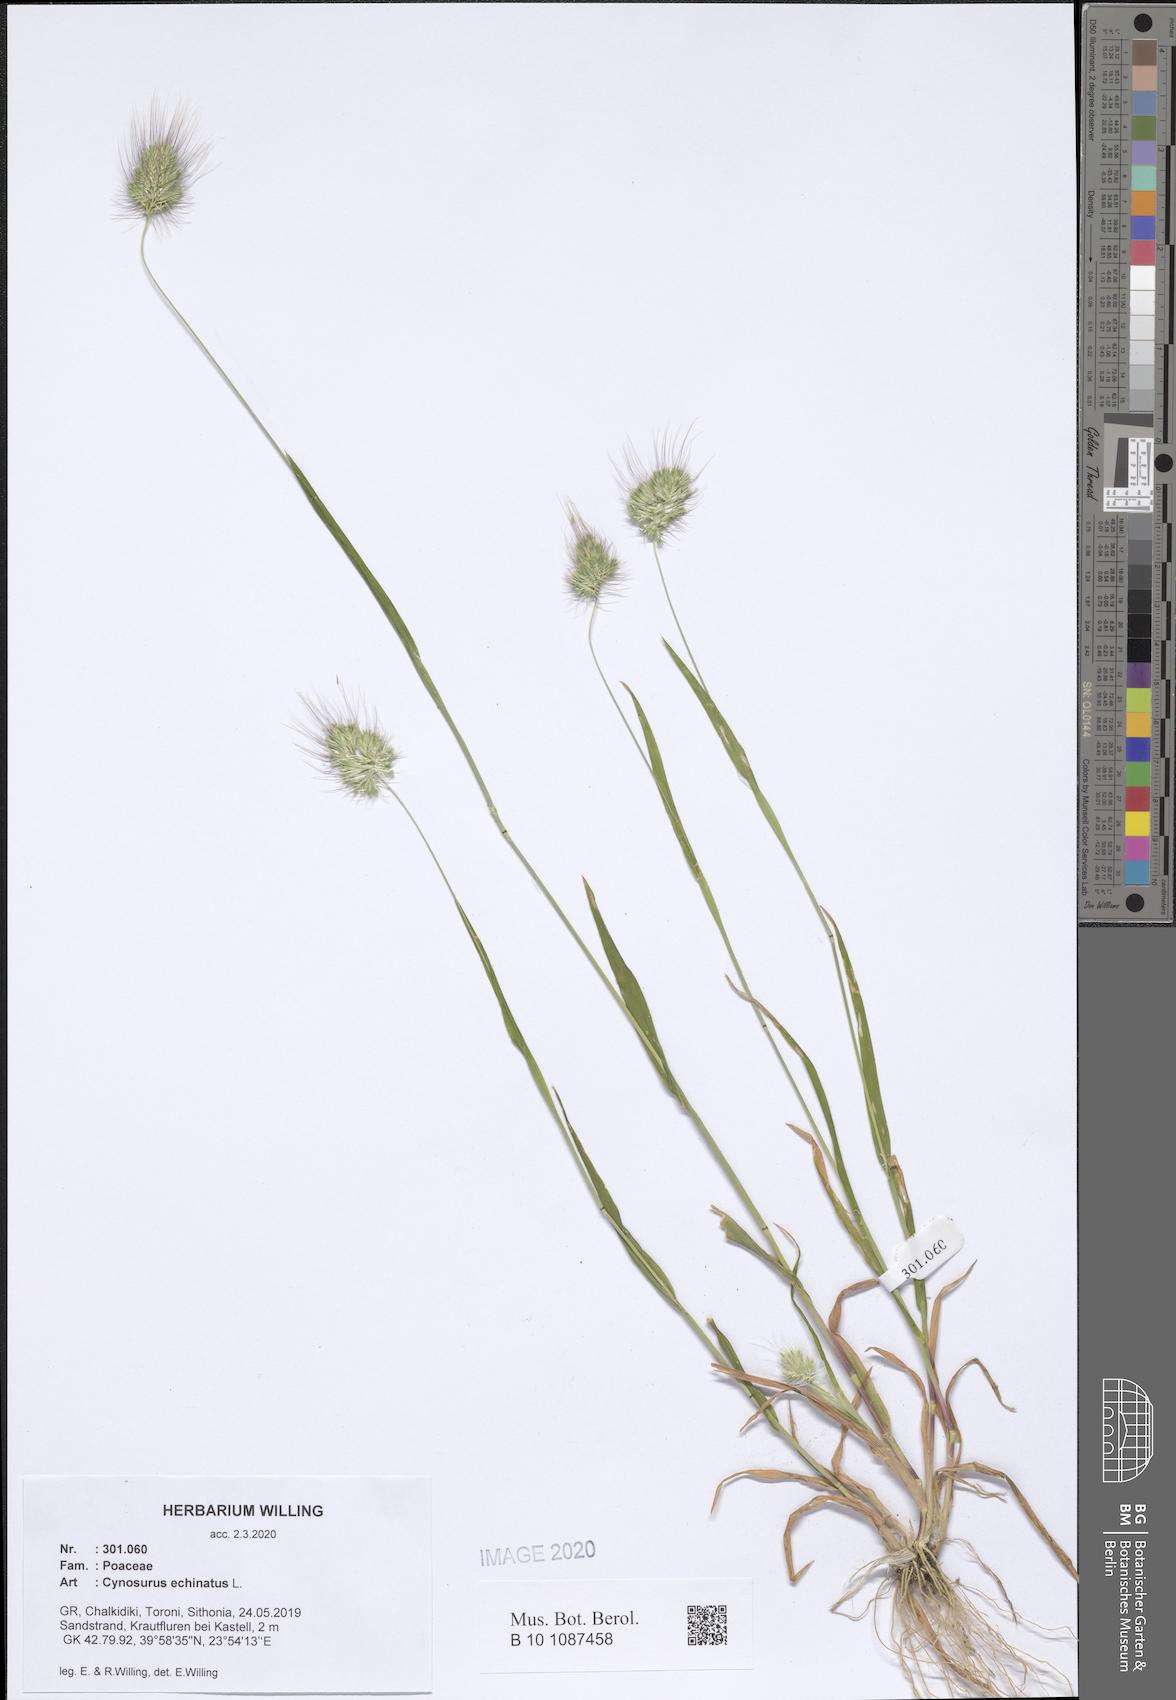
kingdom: Plantae
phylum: Tracheophyta
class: Liliopsida
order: Poales
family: Poaceae
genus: Cynosurus
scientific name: Cynosurus echinatus
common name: Rough dog's-tail
